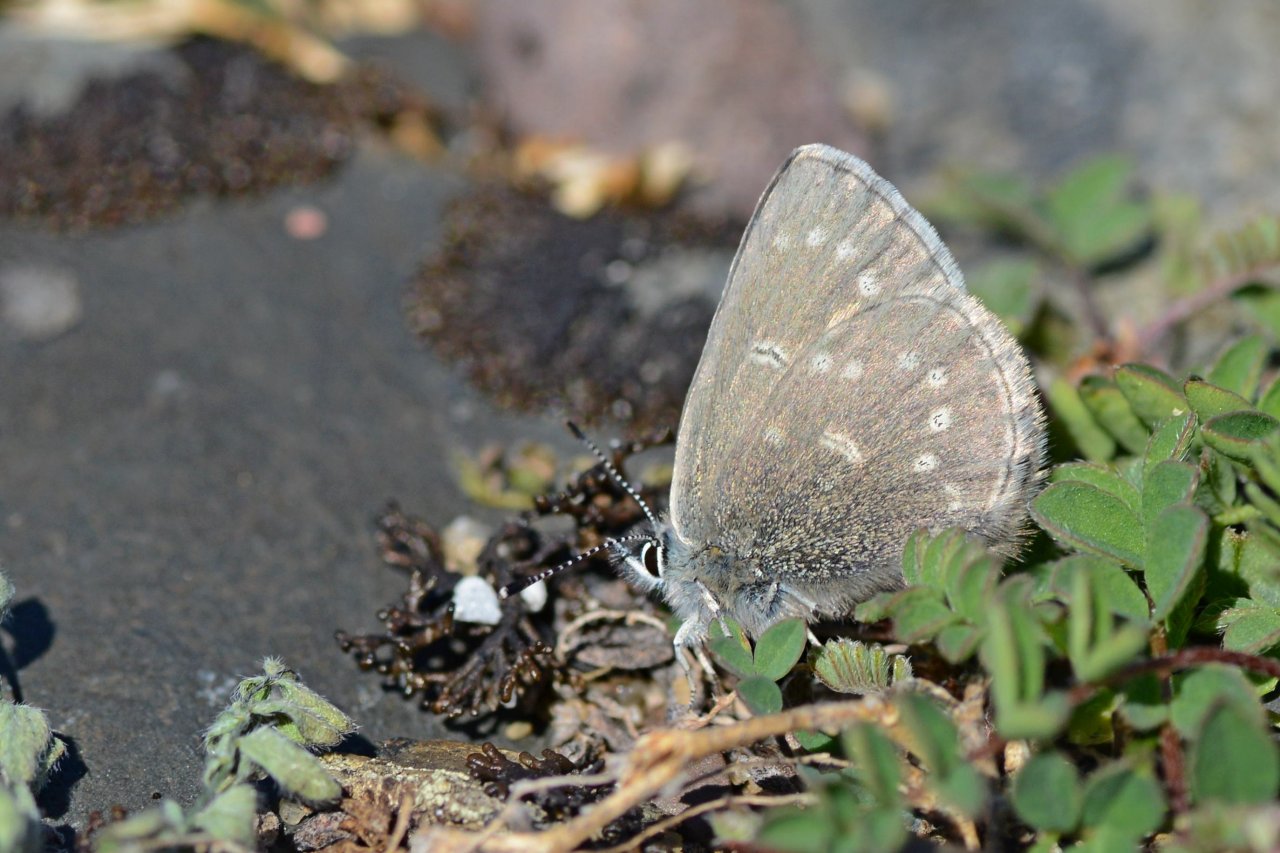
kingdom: Animalia
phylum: Arthropoda
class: Insecta
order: Lepidoptera
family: Lycaenidae
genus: Glaucopsyche
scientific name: Glaucopsyche lygdamus
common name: Silvery Blue
